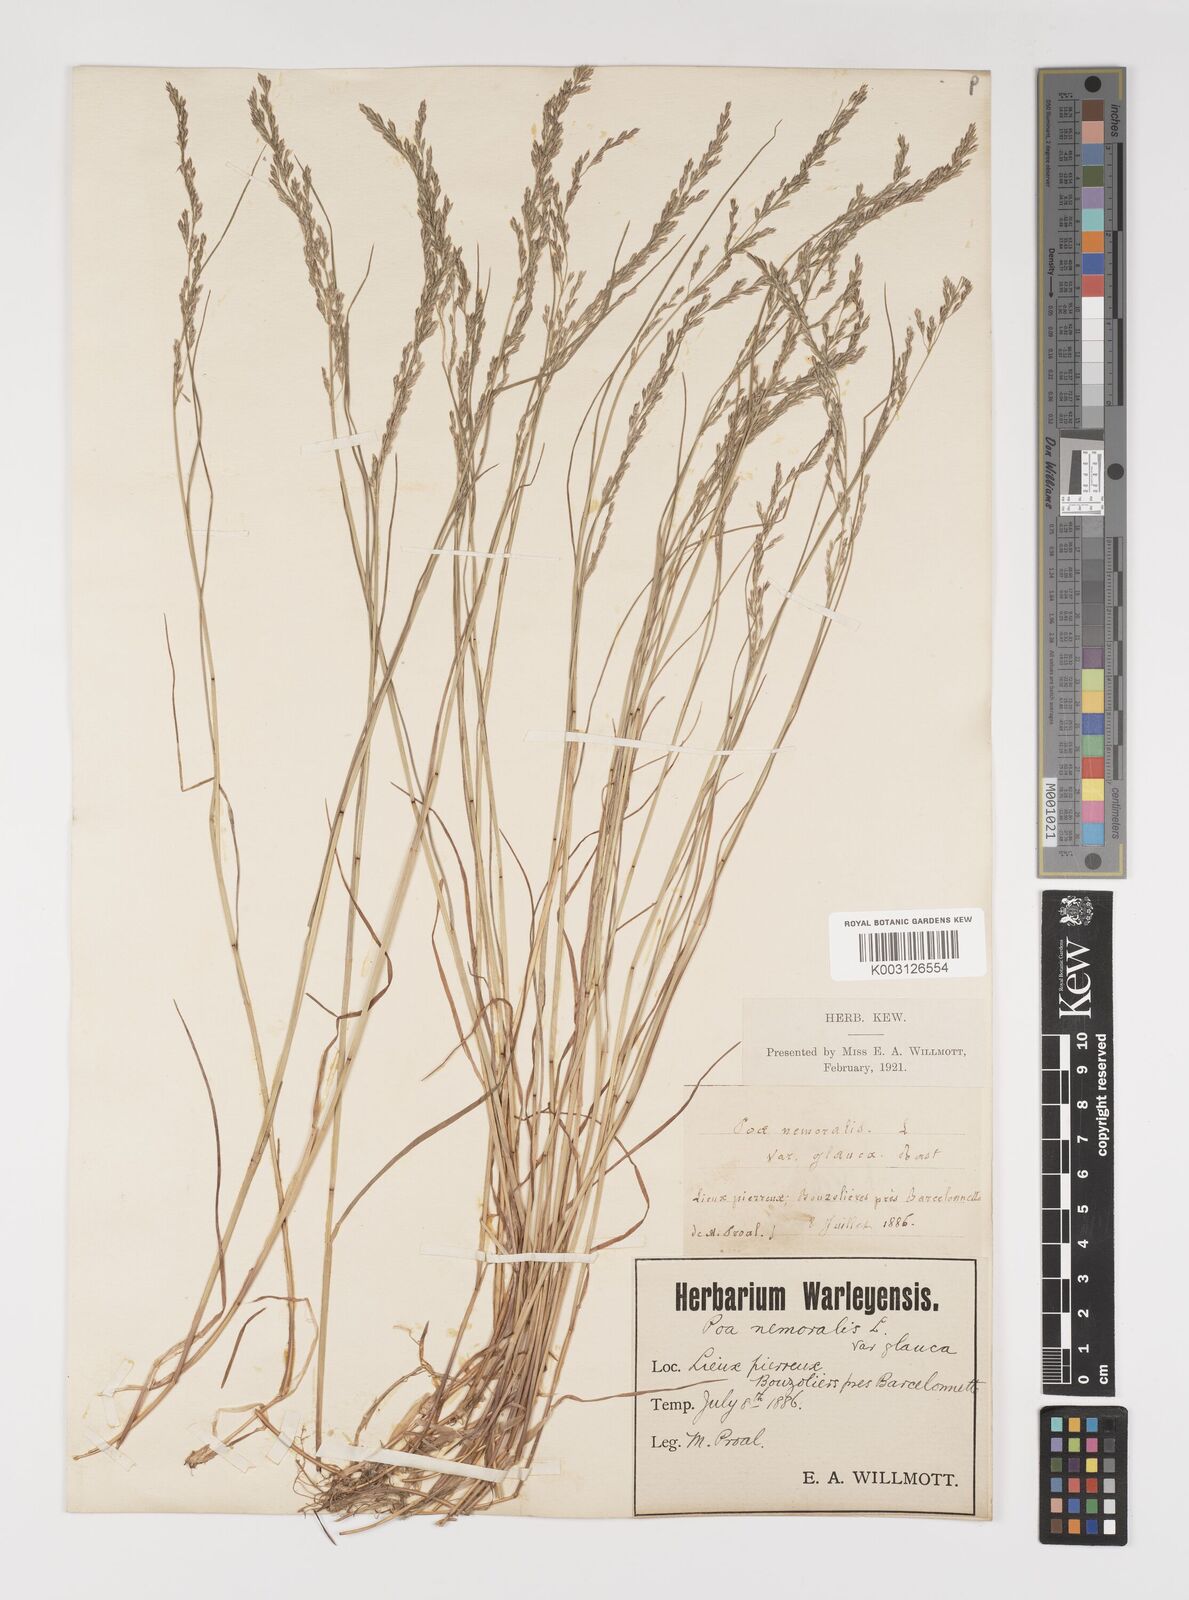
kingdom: Plantae
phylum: Tracheophyta
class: Liliopsida
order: Poales
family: Poaceae
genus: Poa
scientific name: Poa nemoralis
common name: Wood bluegrass
